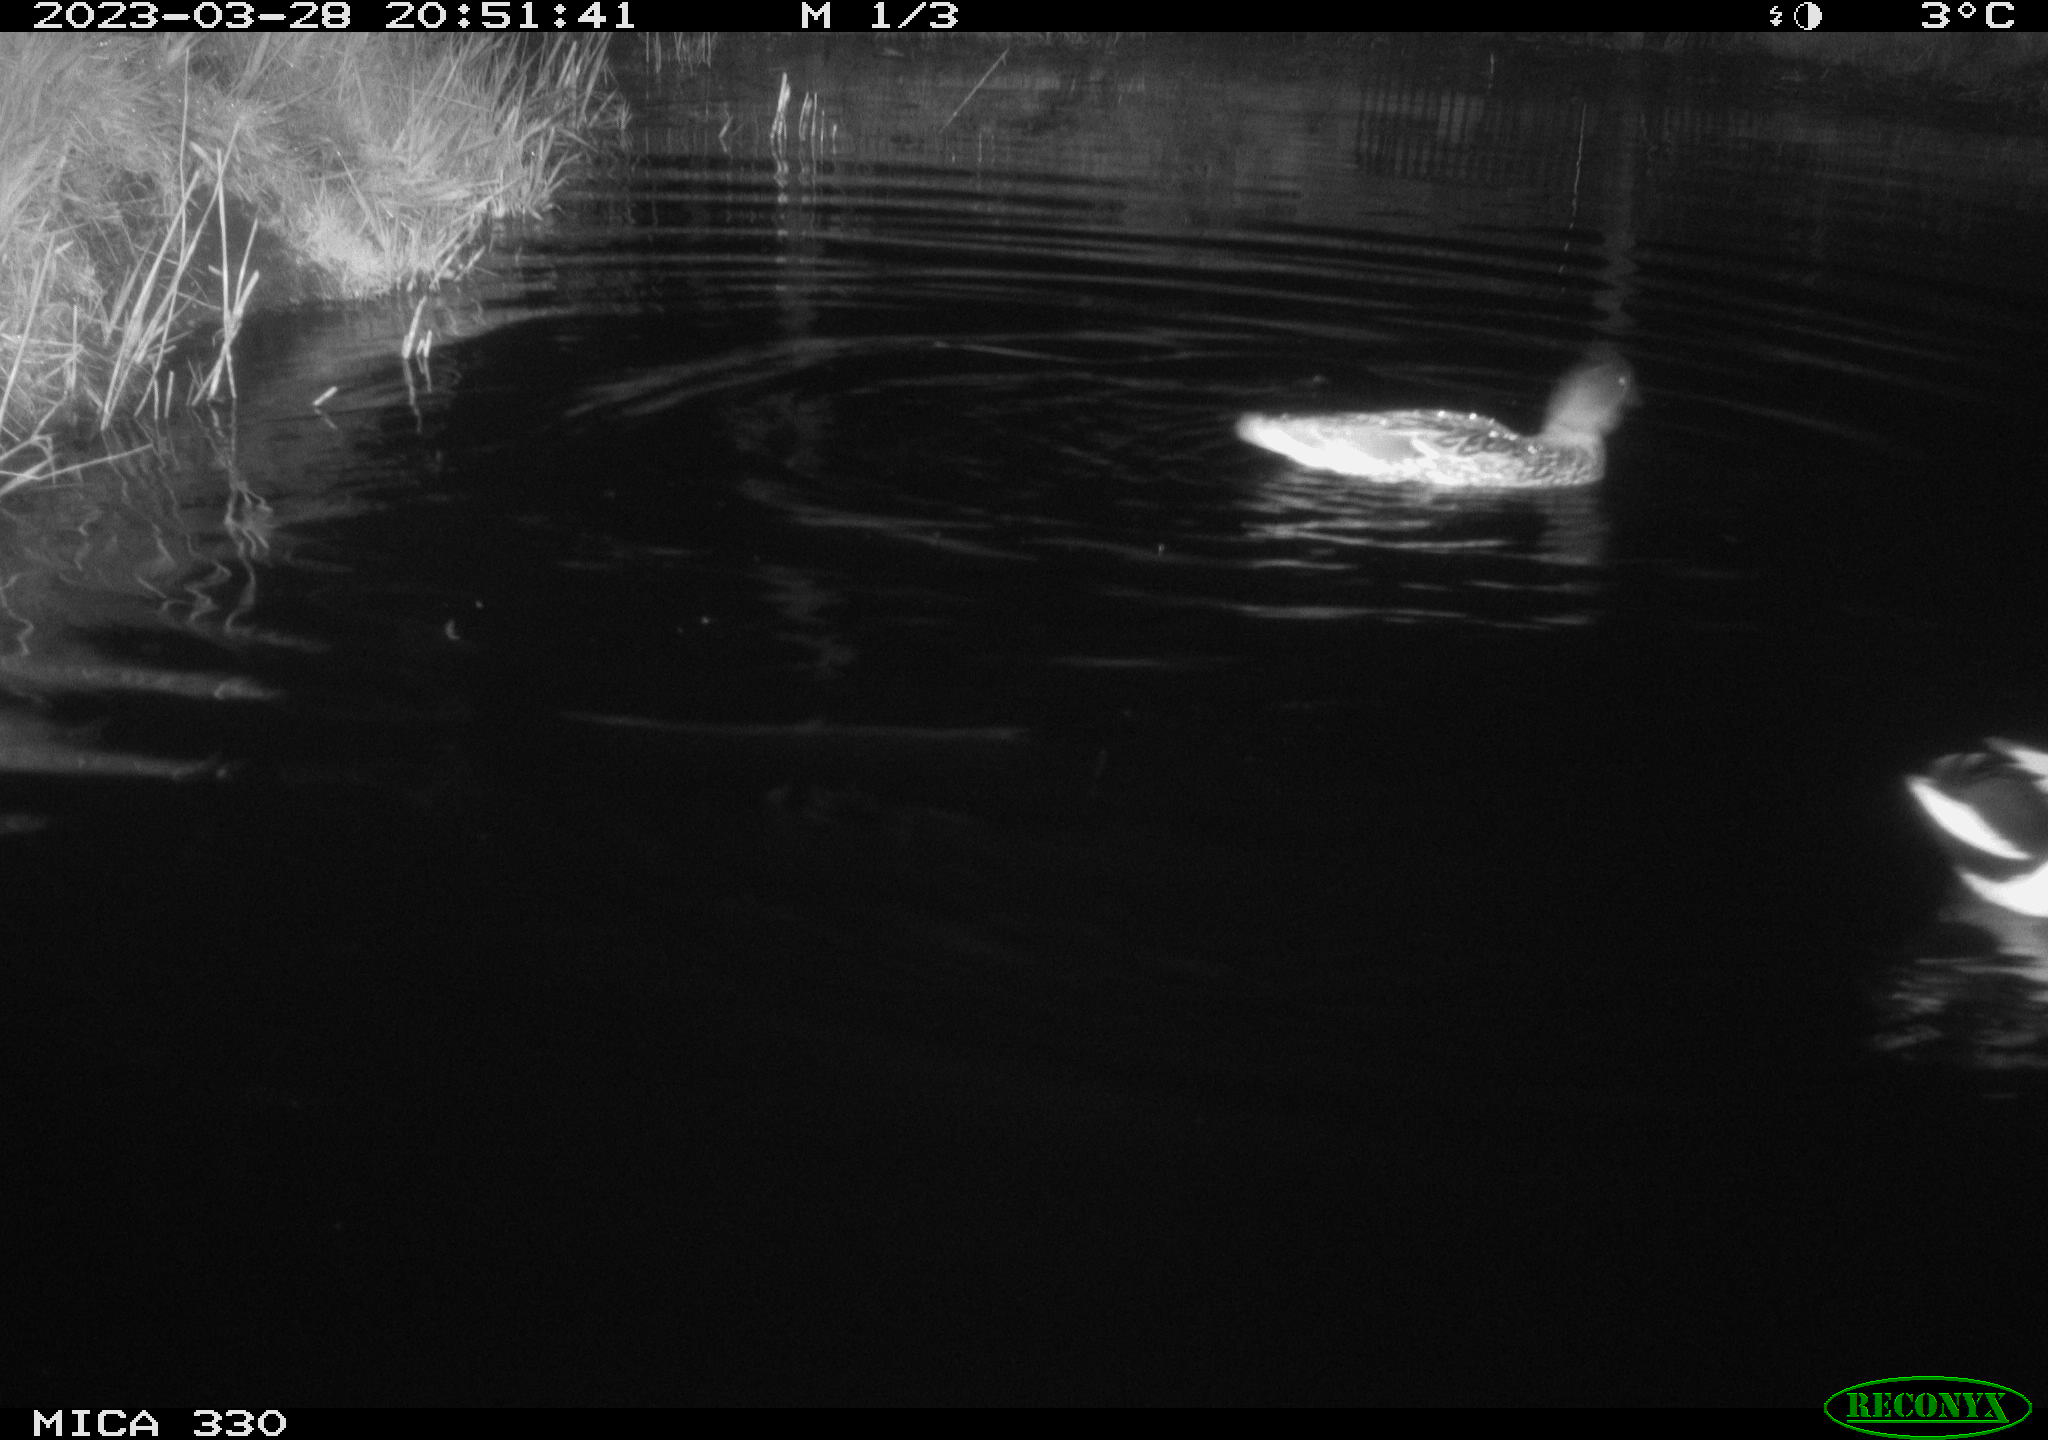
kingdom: Animalia
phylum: Chordata
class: Aves
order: Anseriformes
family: Anatidae
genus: Anas
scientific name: Anas
